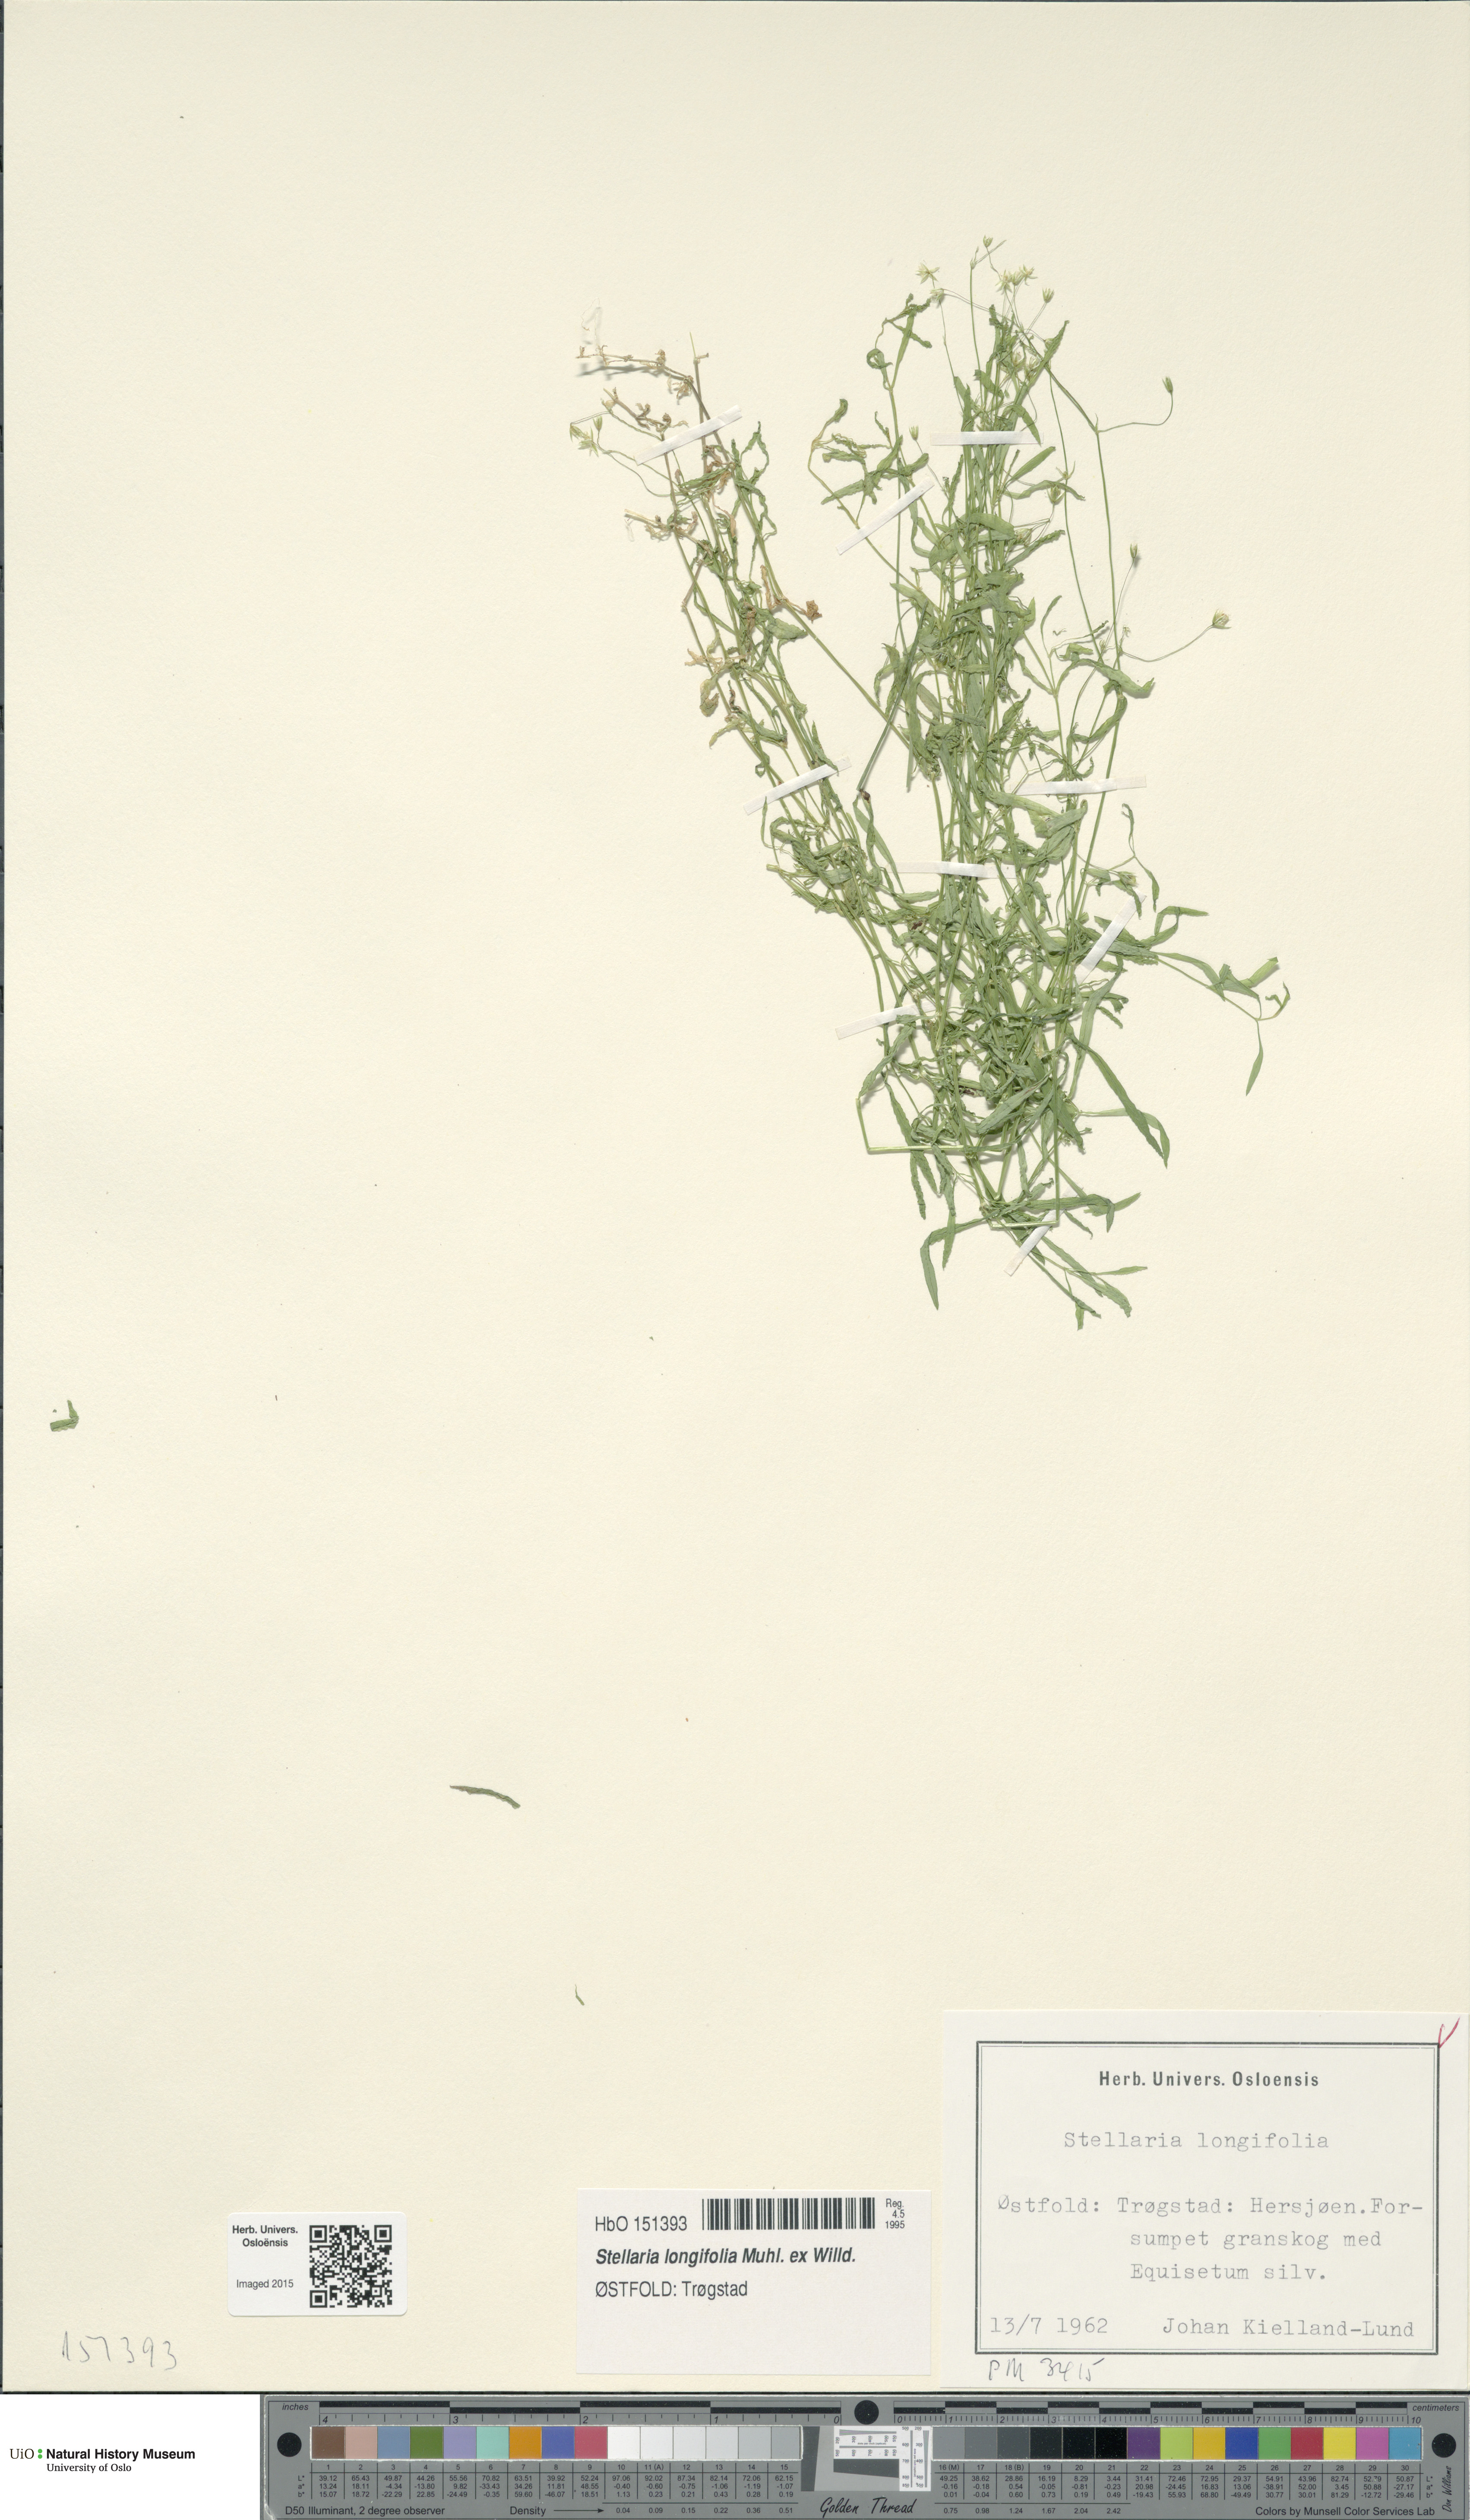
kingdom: Plantae
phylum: Tracheophyta
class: Magnoliopsida
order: Caryophyllales
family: Caryophyllaceae
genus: Stellaria
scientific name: Stellaria longifolia
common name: Long-leaved chickweed
